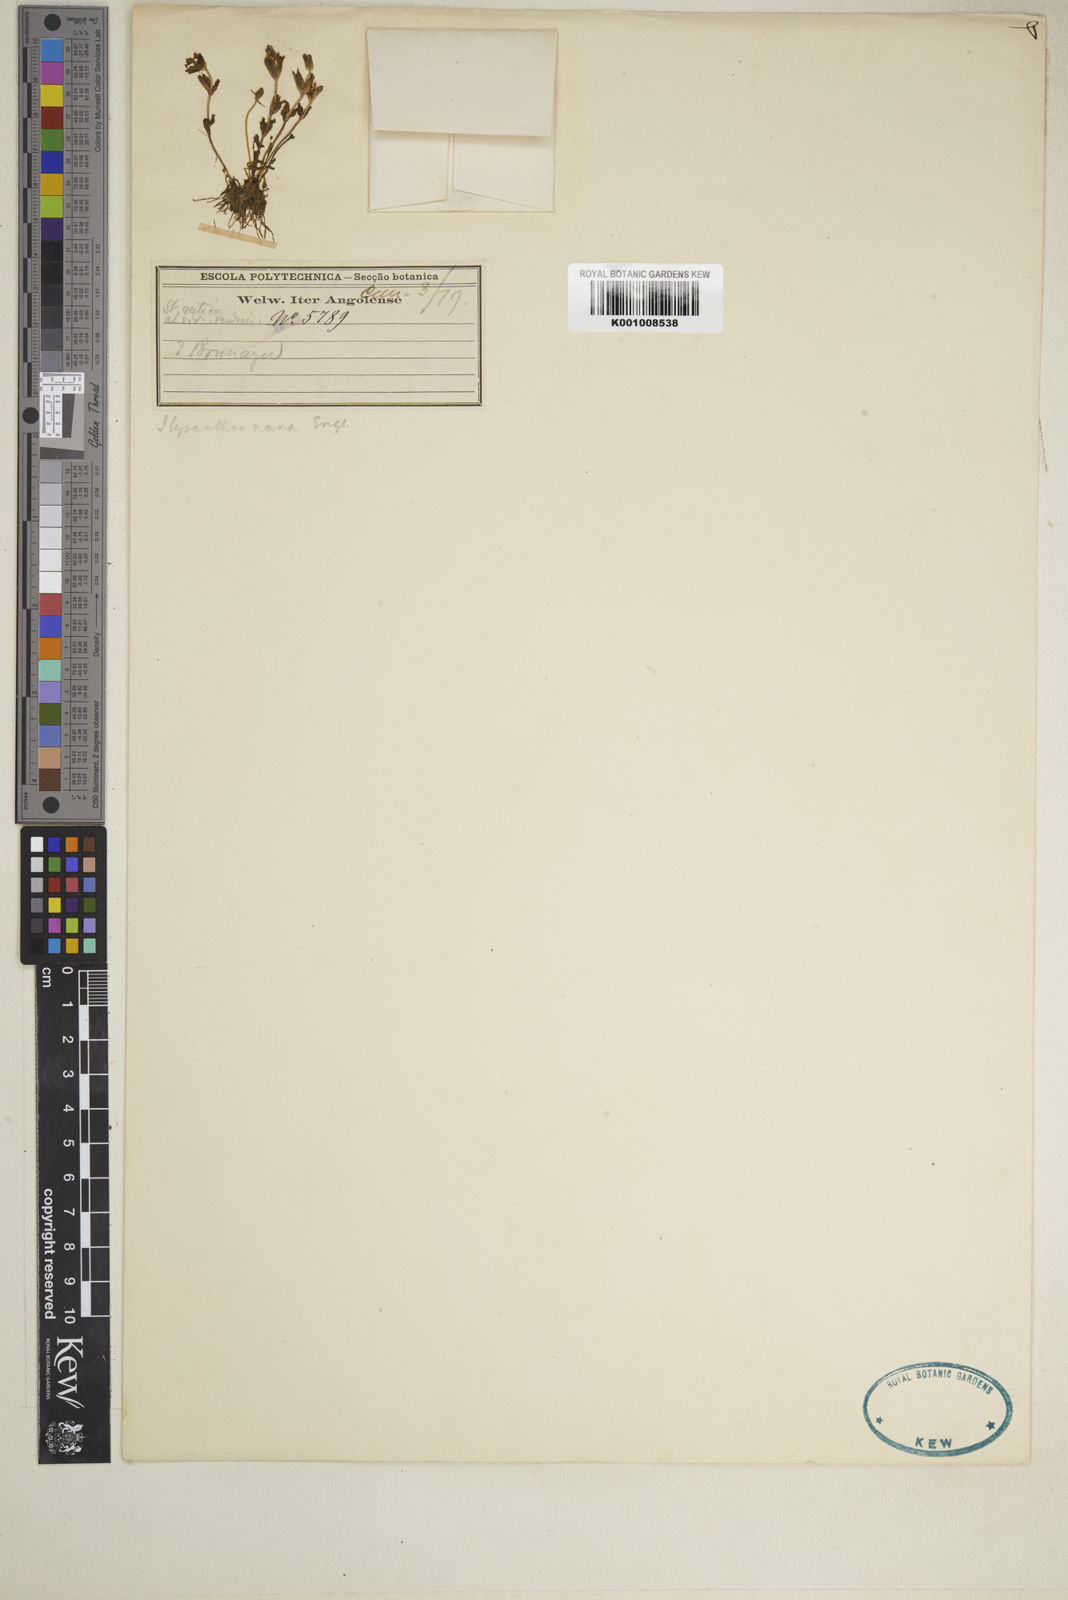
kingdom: Plantae
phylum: Tracheophyta
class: Magnoliopsida
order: Lamiales
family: Linderniaceae
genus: Linderniella
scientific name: Linderniella nana
